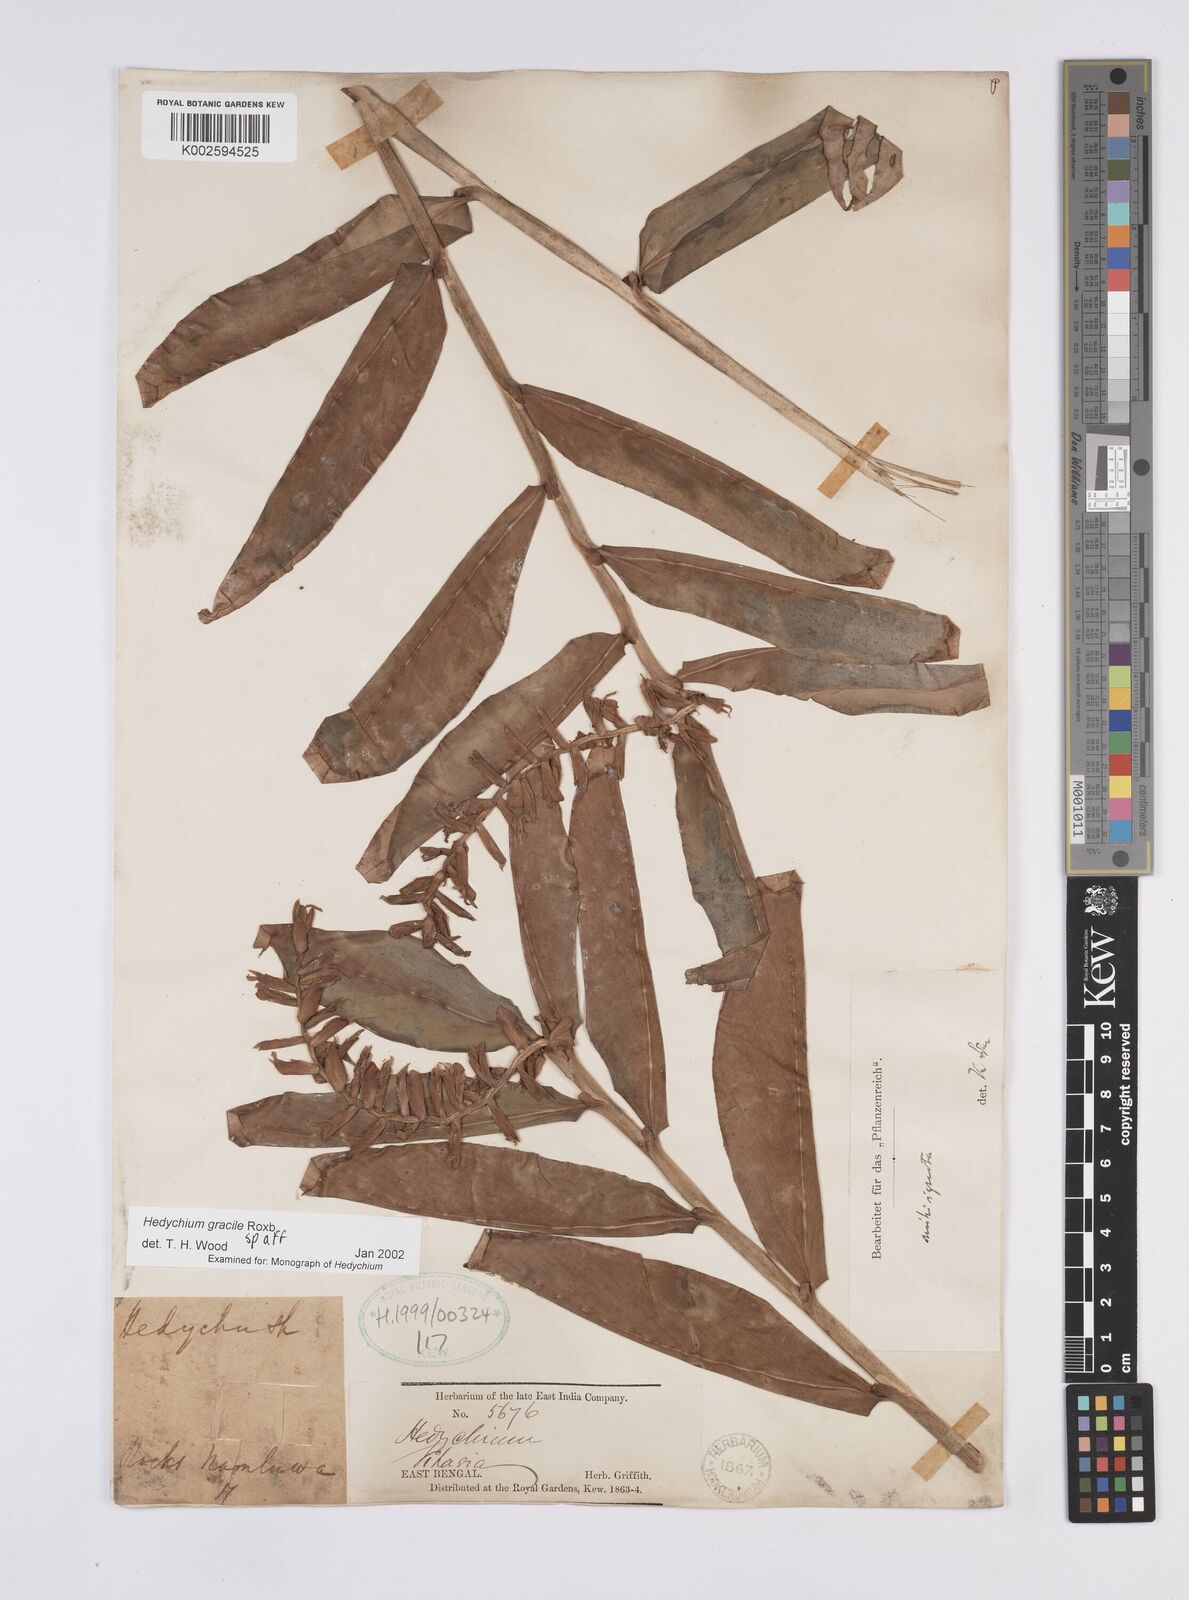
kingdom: Plantae
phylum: Tracheophyta
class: Liliopsida
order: Zingiberales
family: Zingiberaceae
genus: Hedychium
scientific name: Hedychium gracile
